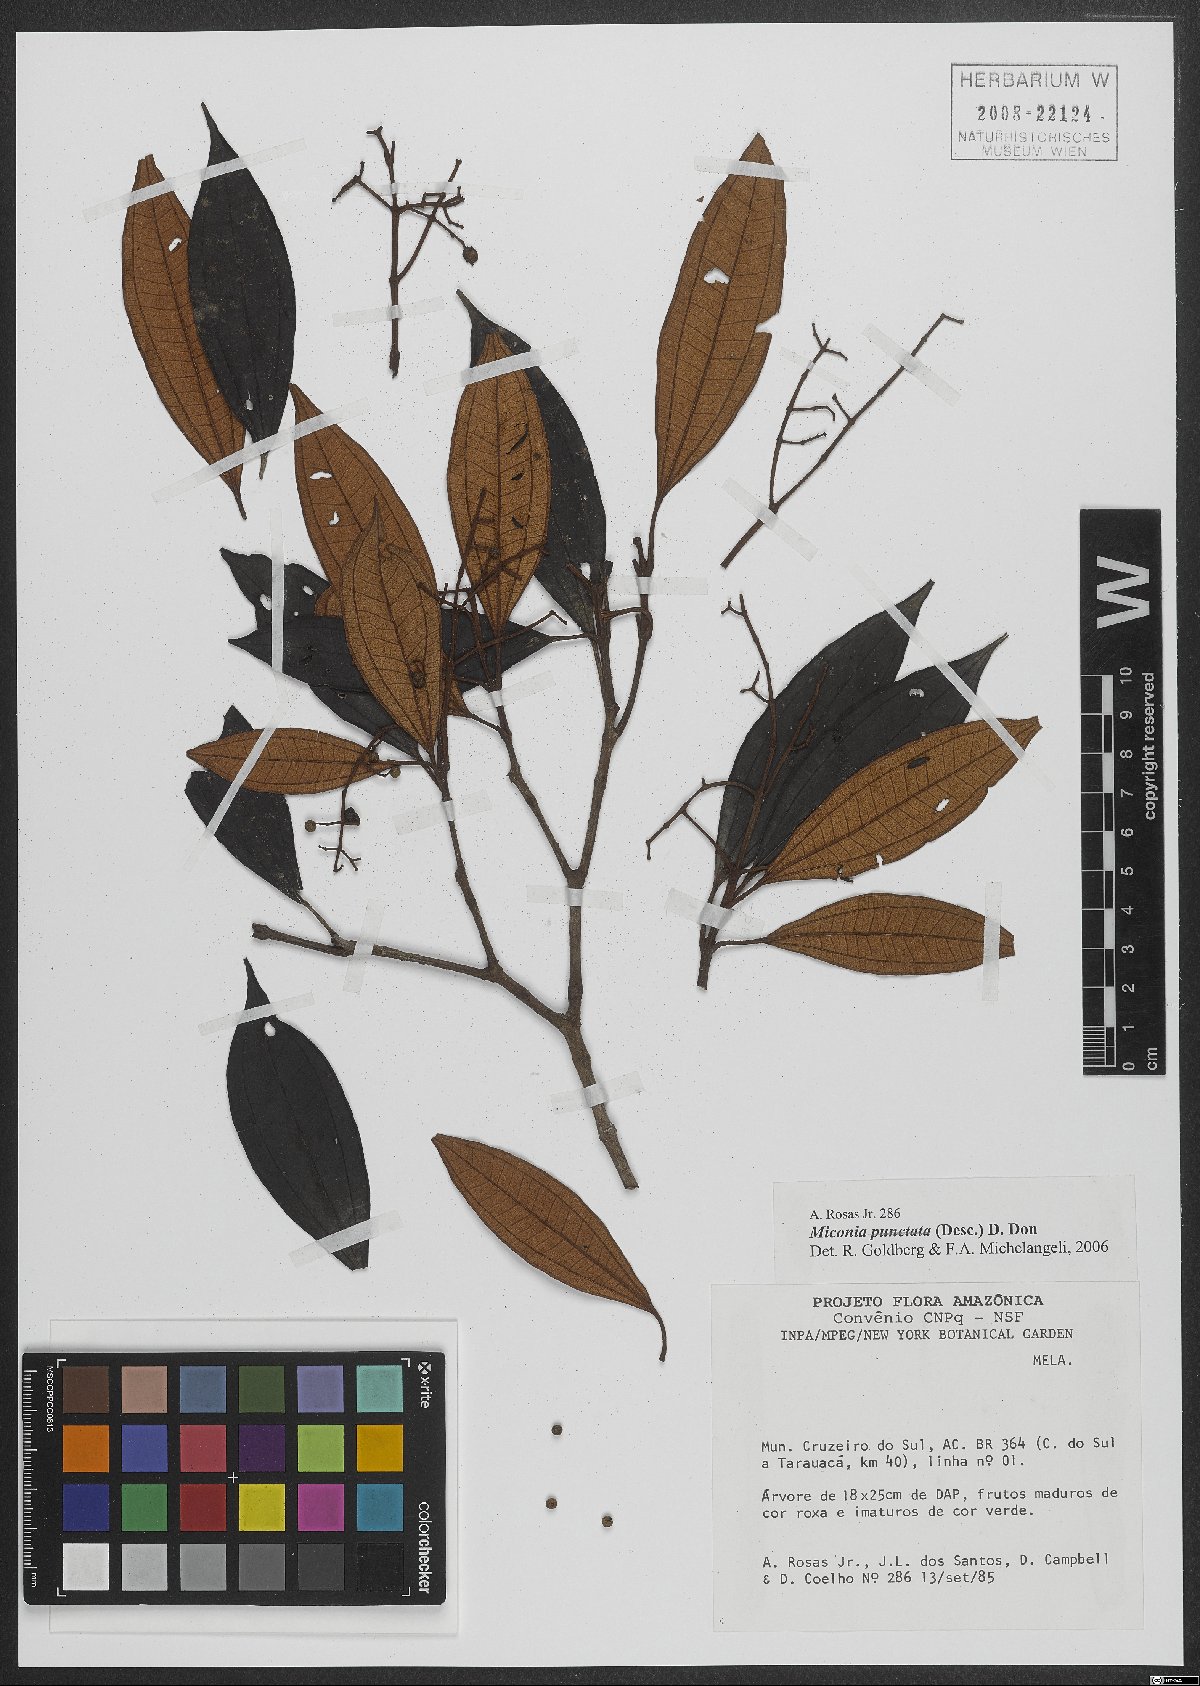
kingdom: Plantae
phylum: Tracheophyta
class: Magnoliopsida
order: Myrtales
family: Melastomataceae
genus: Miconia
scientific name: Miconia pustulata
